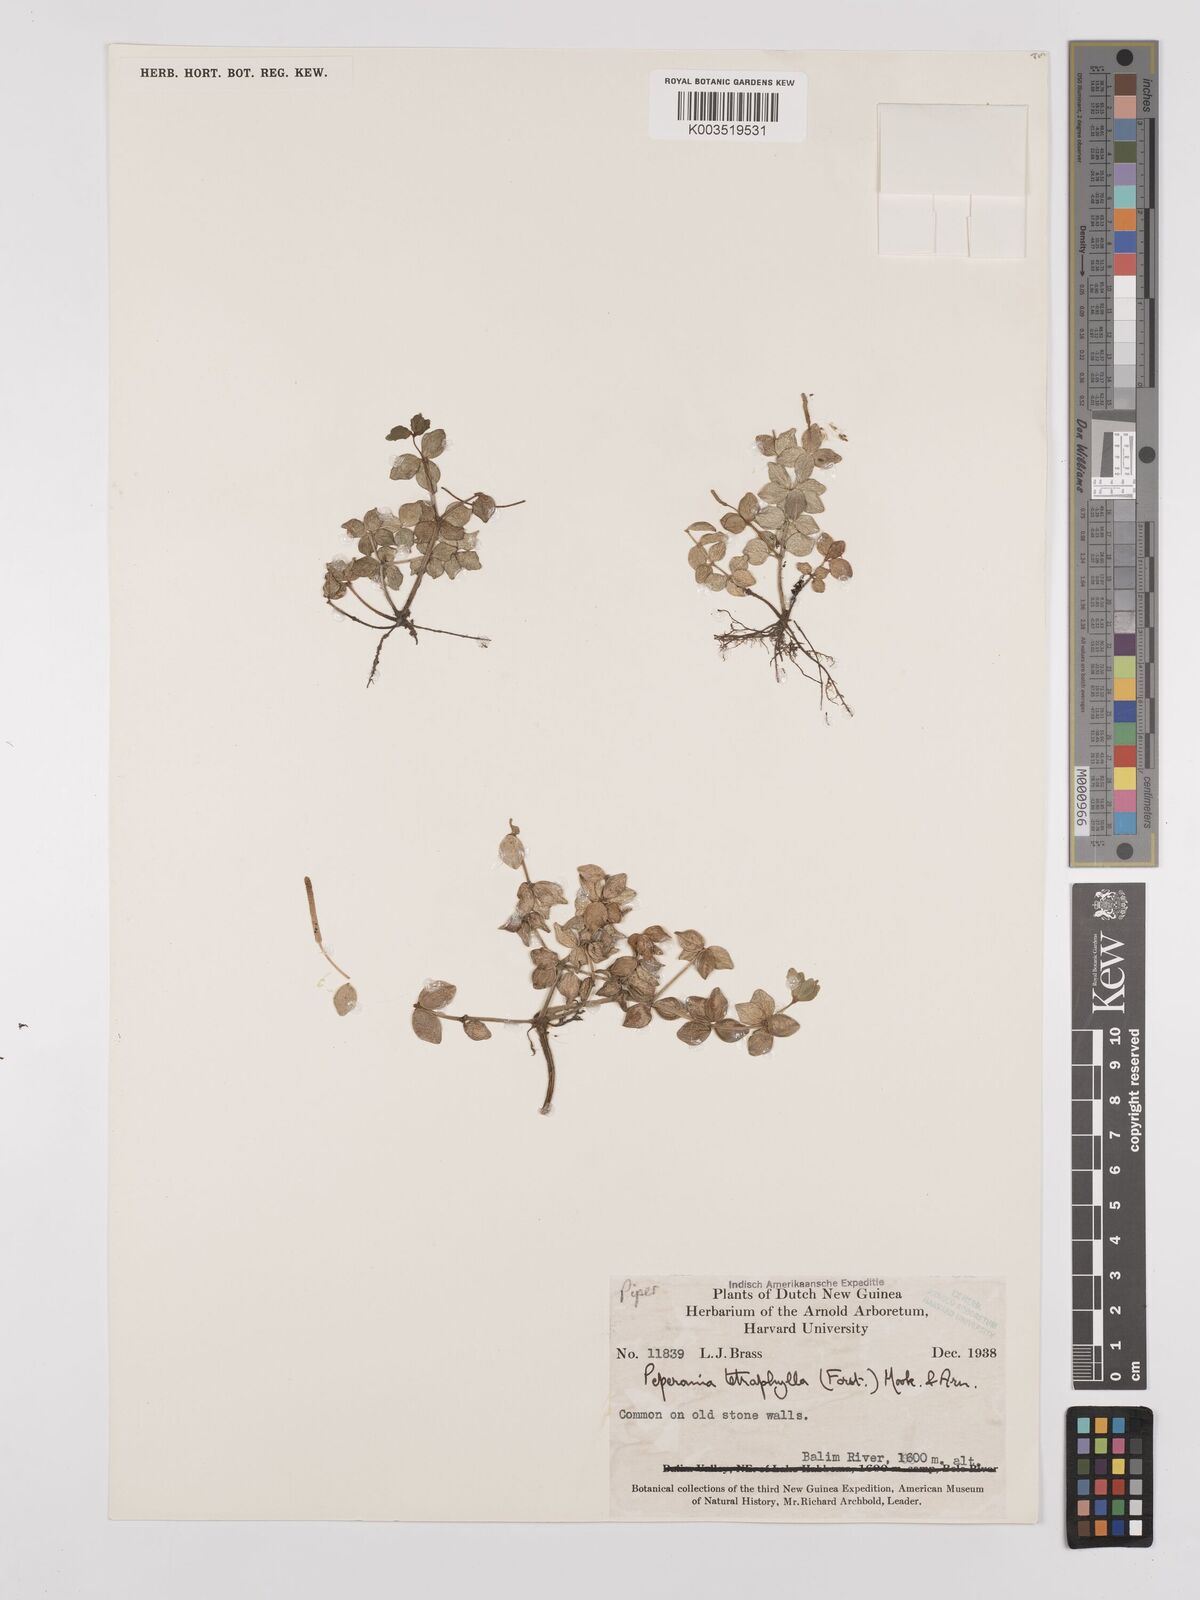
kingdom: Plantae
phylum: Tracheophyta
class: Magnoliopsida
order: Piperales
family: Piperaceae
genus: Peperomia
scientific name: Peperomia tetraphylla
